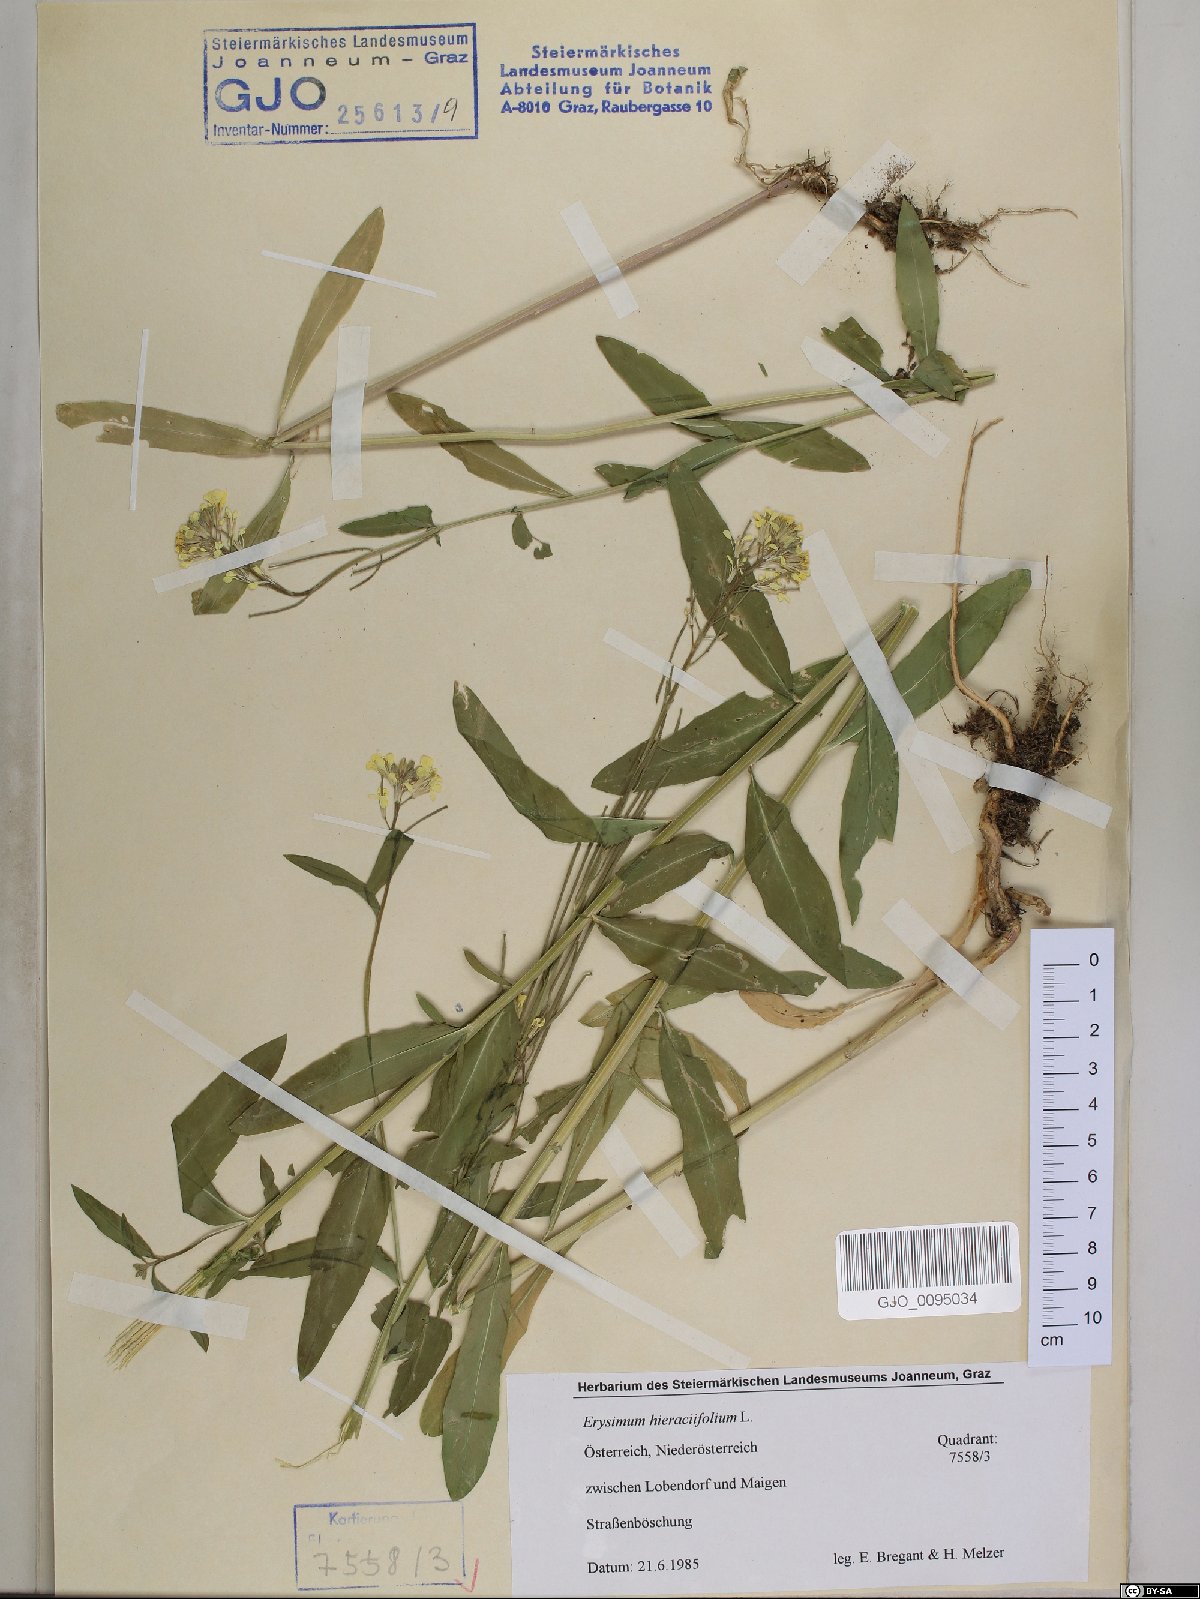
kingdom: Plantae
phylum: Tracheophyta
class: Magnoliopsida
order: Brassicales
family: Brassicaceae
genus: Erysimum
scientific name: Erysimum hieraciifolium
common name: European wallflower
